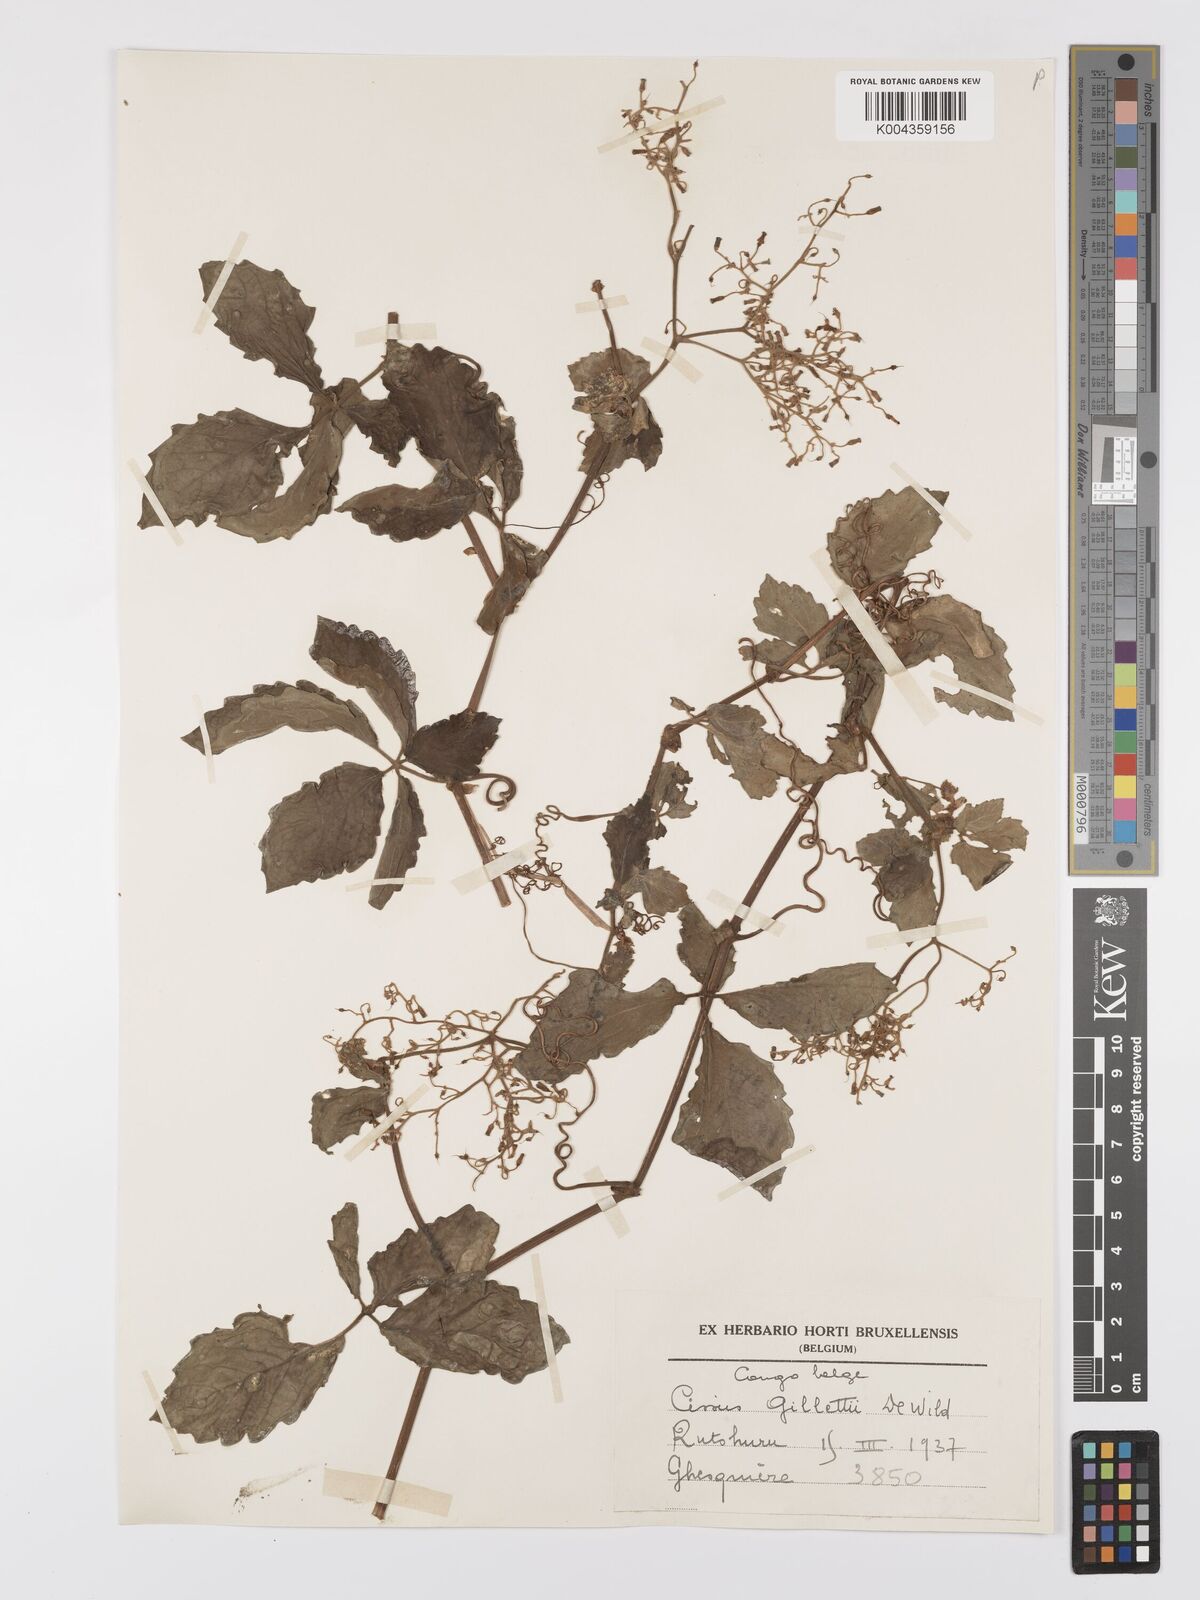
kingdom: Plantae
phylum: Tracheophyta
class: Magnoliopsida
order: Vitales
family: Vitaceae
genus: Cyphostemma
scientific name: Cyphostemma gilletii
